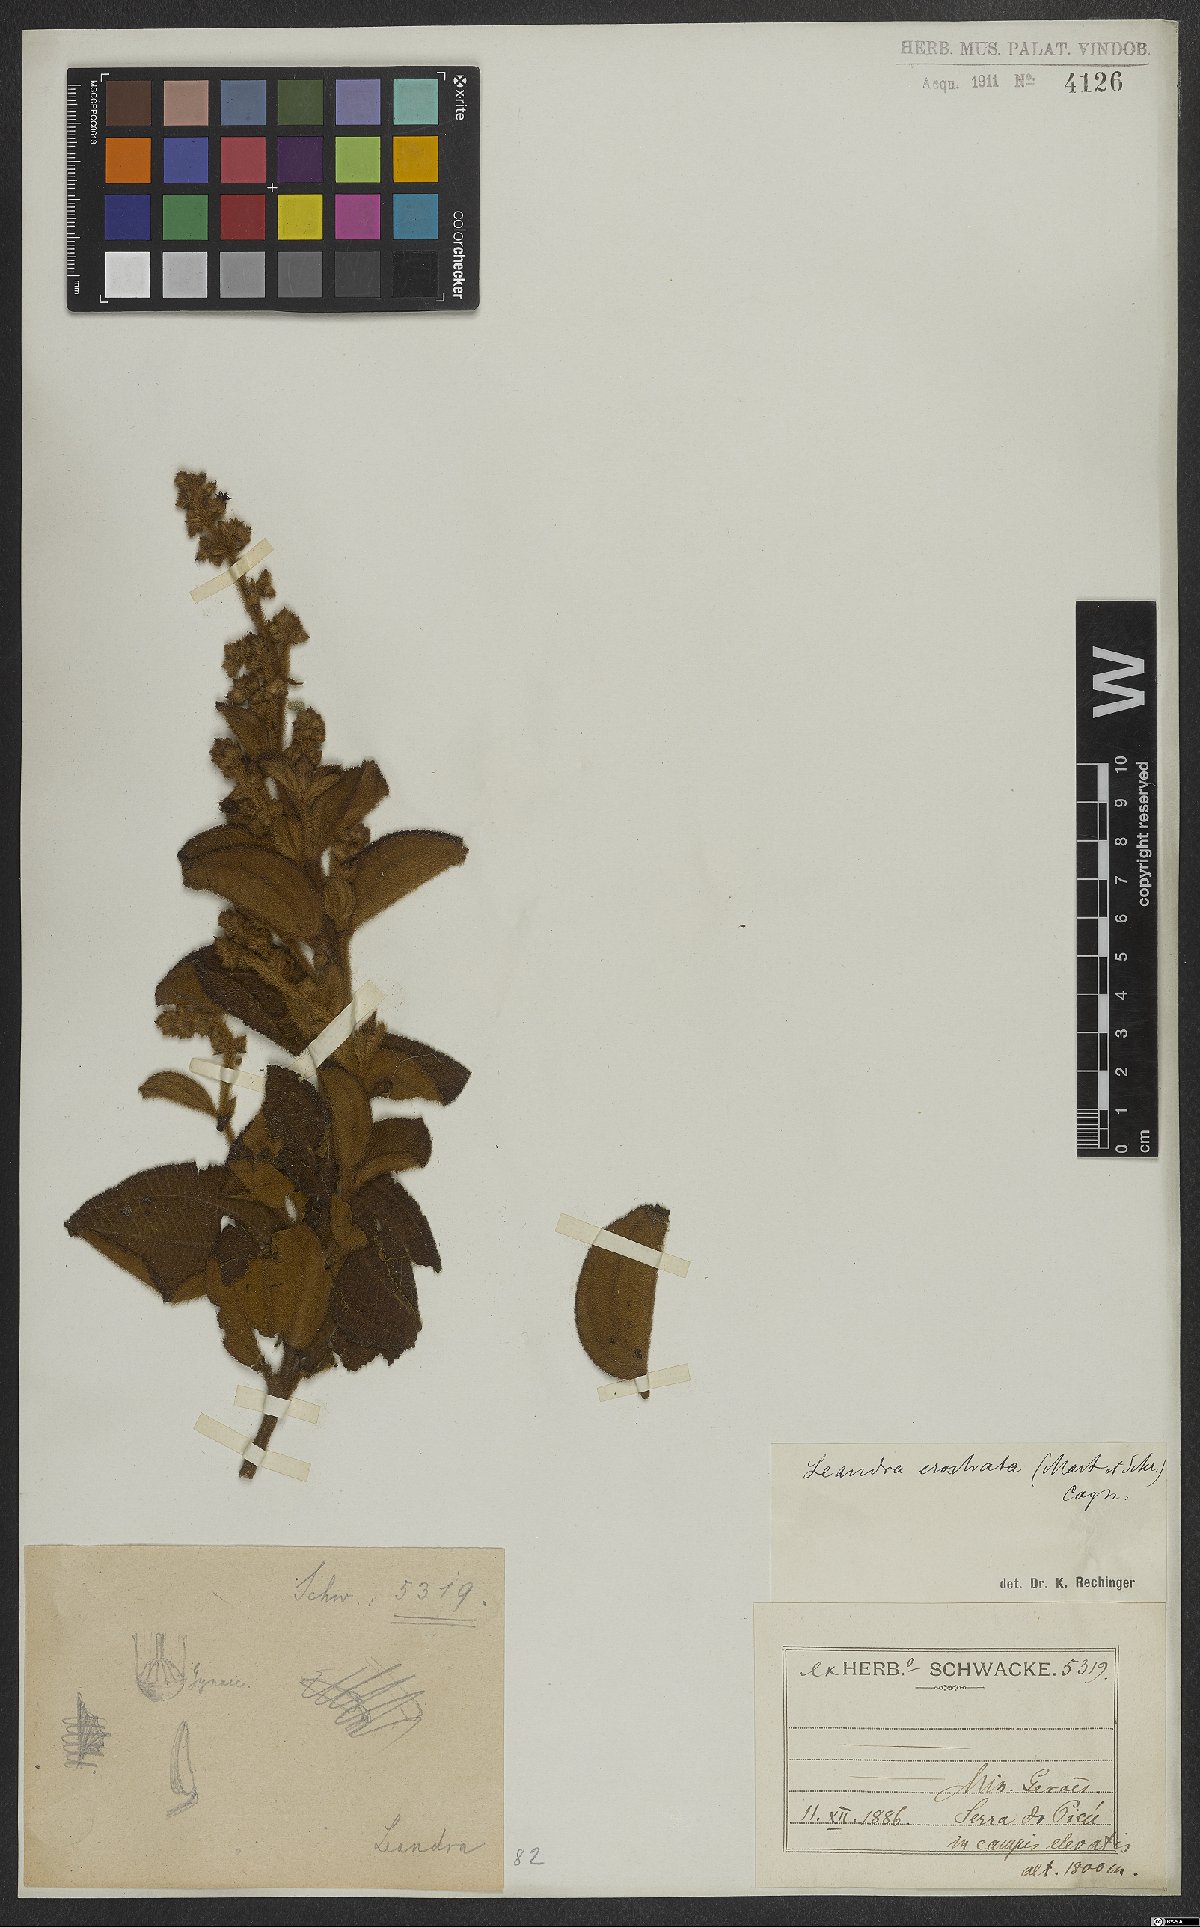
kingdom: Plantae
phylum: Tracheophyta
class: Magnoliopsida
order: Myrtales
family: Melastomataceae
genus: Miconia
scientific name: Miconia erostrata
